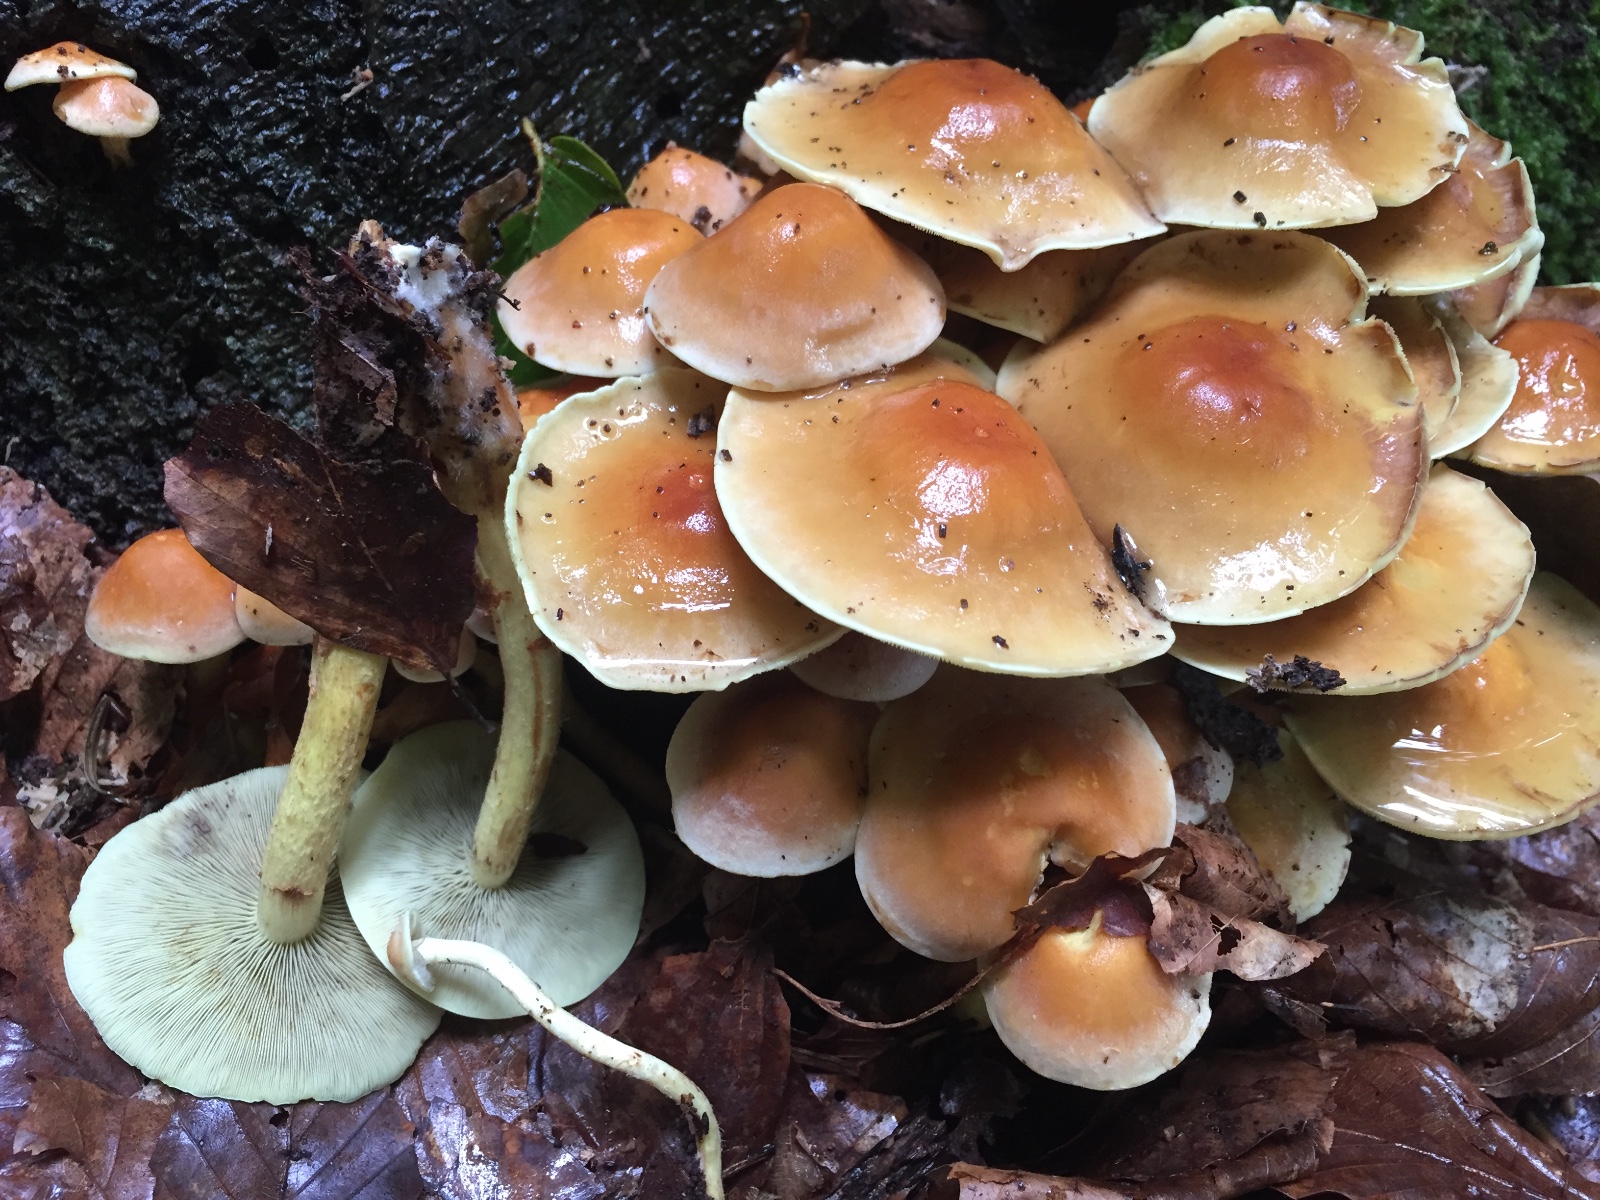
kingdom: Fungi
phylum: Basidiomycota
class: Agaricomycetes
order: Agaricales
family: Strophariaceae
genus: Hypholoma
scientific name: Hypholoma fasciculare
